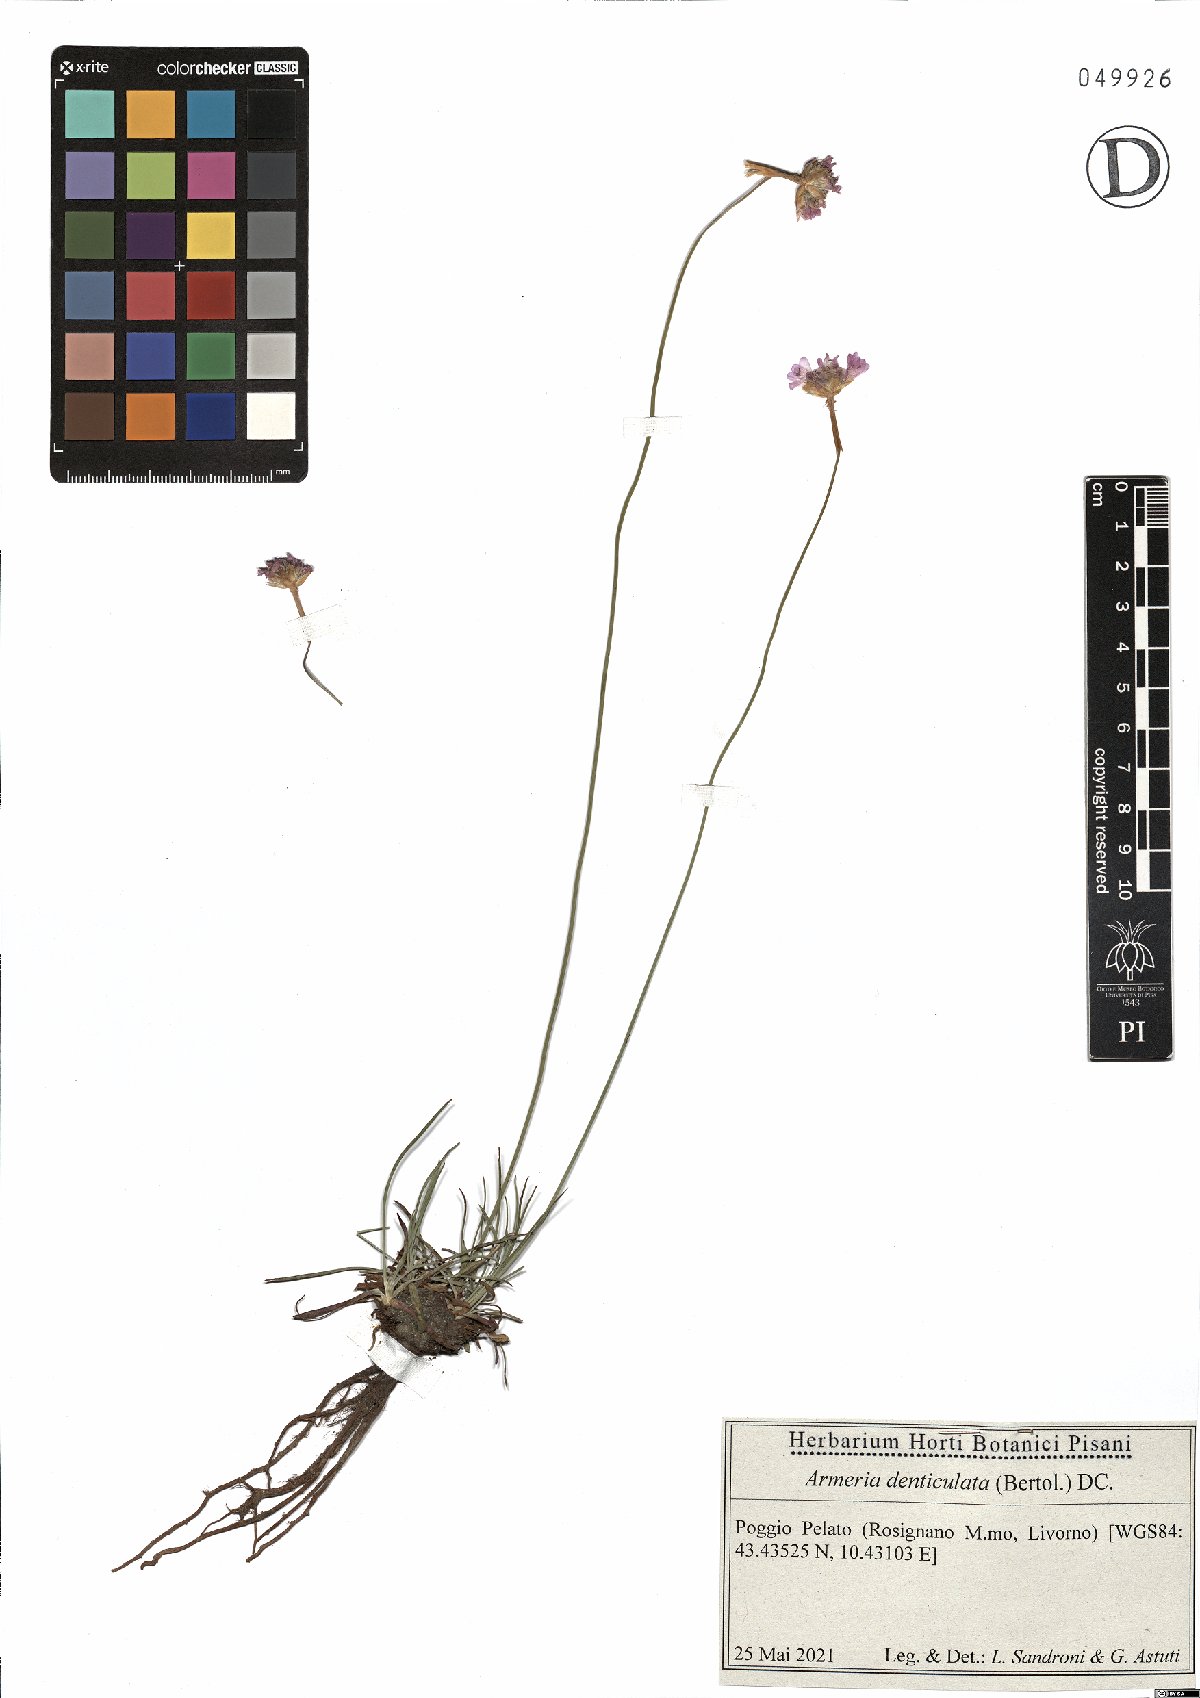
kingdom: Plantae
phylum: Tracheophyta
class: Magnoliopsida
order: Caryophyllales
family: Plumbaginaceae
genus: Armeria
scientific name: Armeria denticulata
